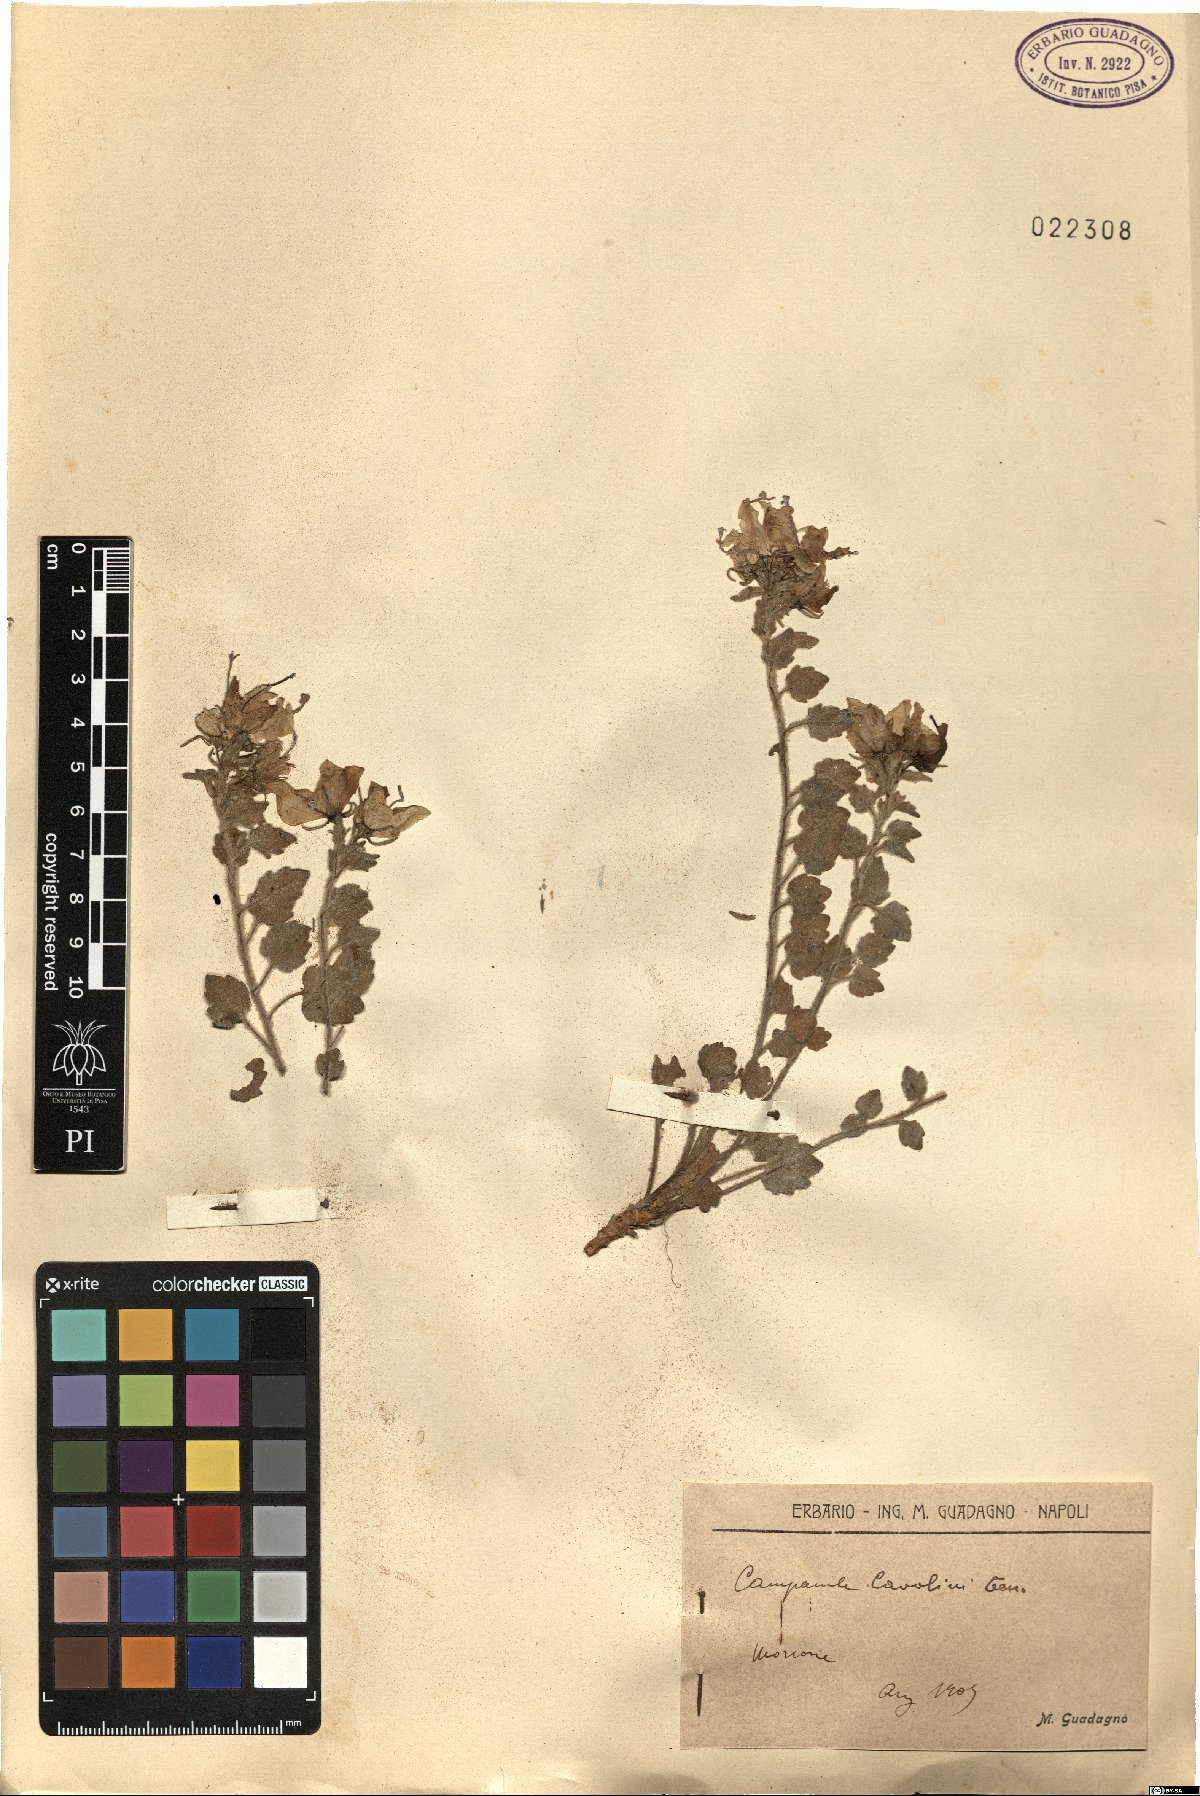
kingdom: Plantae
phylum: Tracheophyta
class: Magnoliopsida
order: Asterales
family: Campanulaceae
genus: Campanula
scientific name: Campanula fragilis
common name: Italian bellflower
